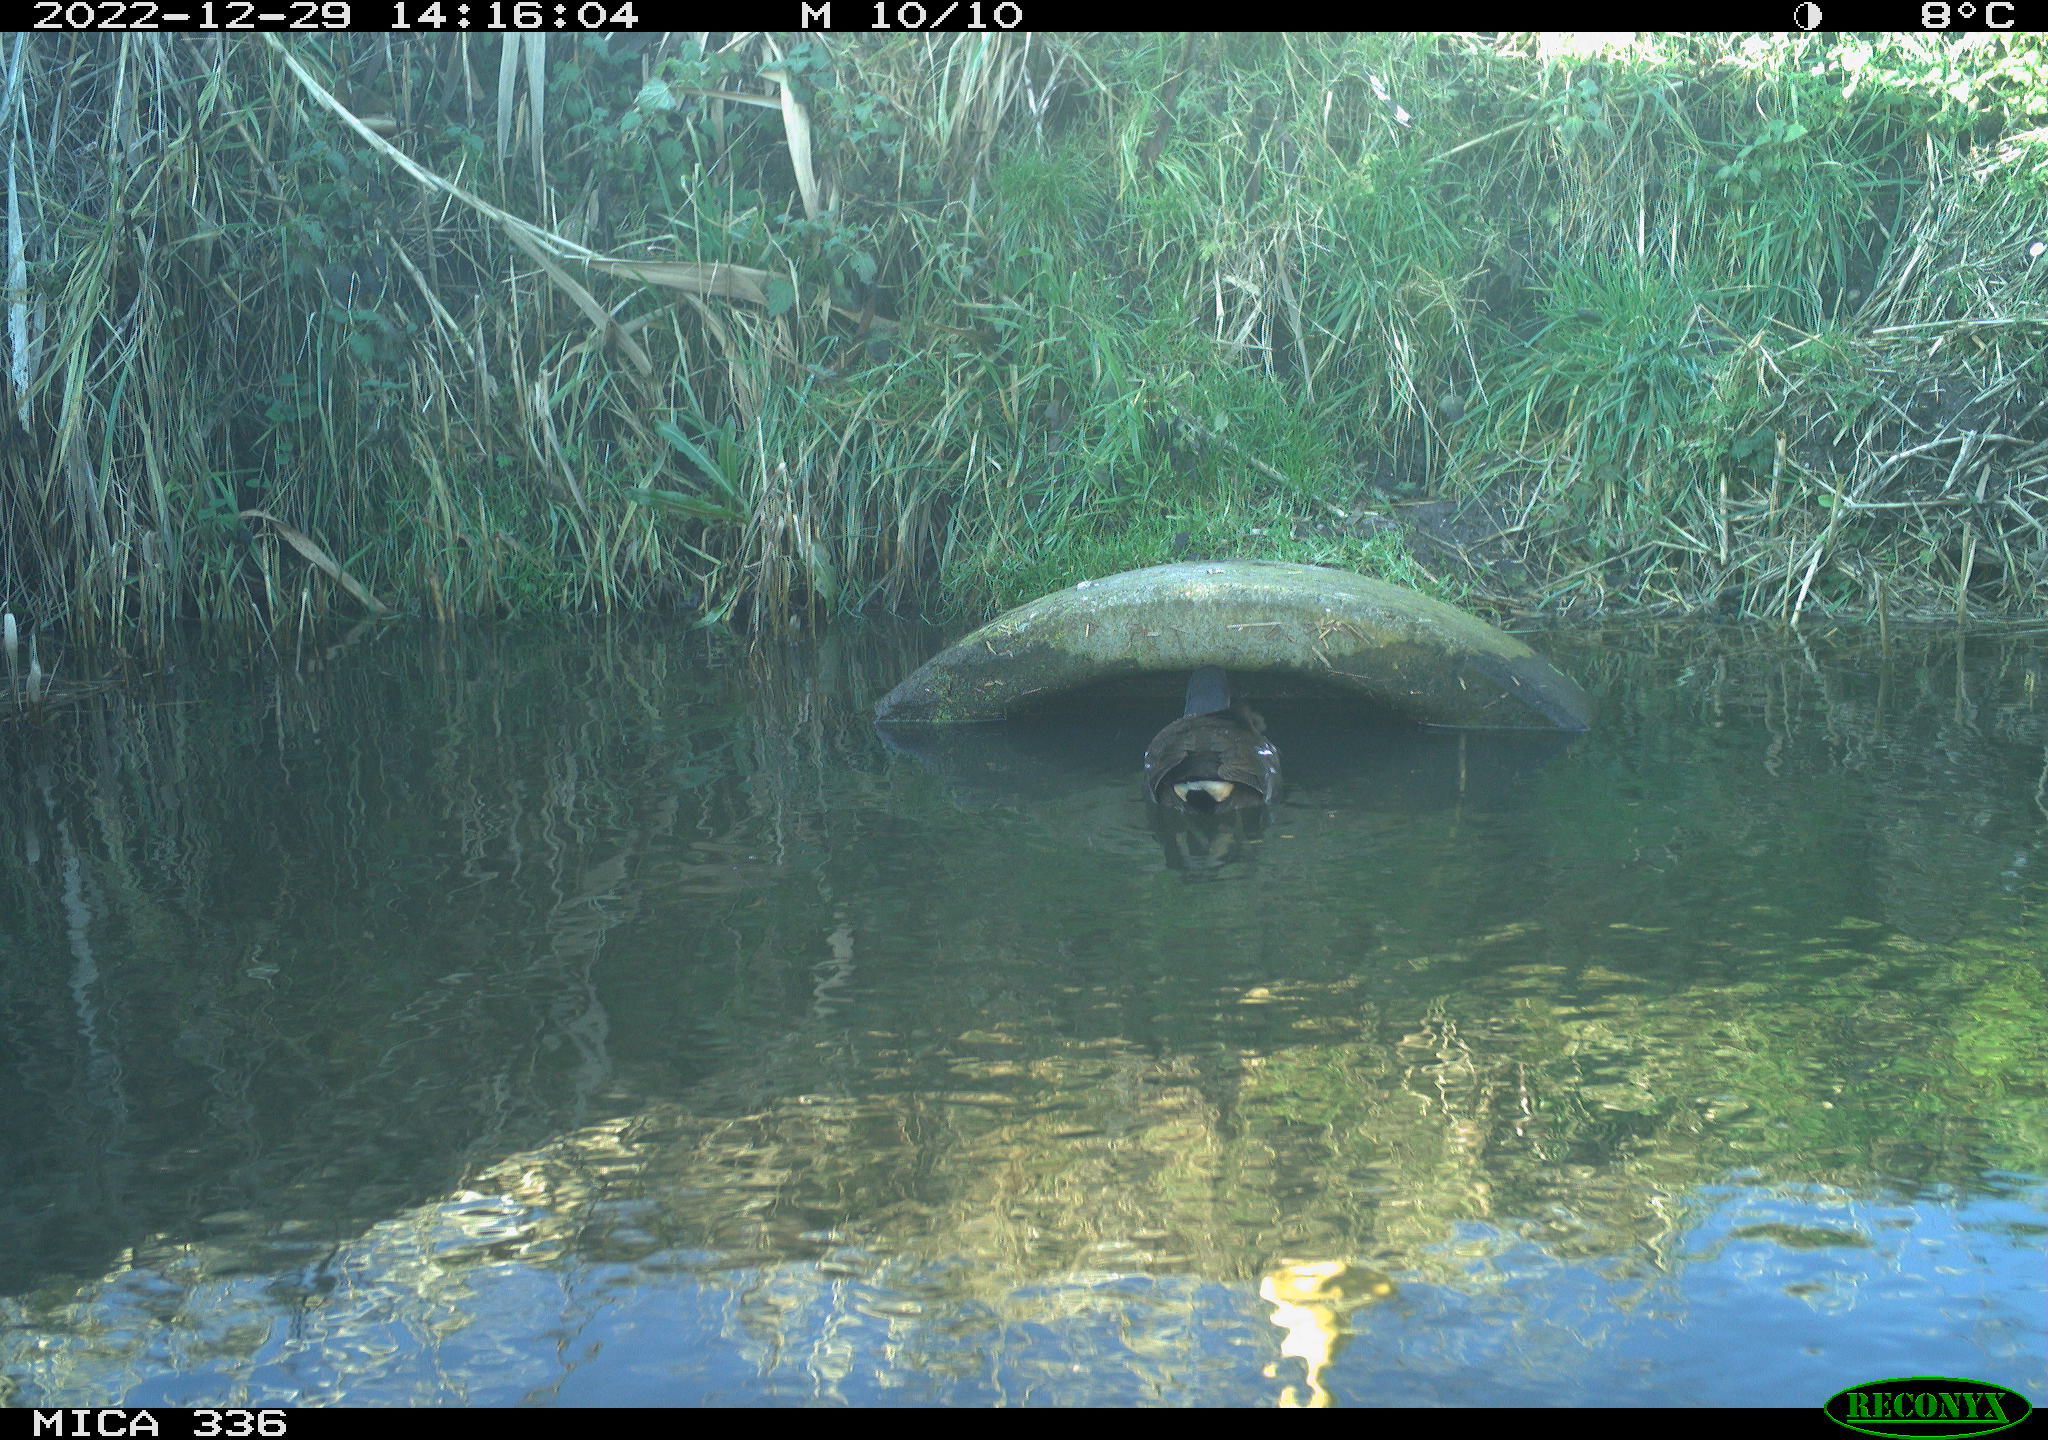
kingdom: Animalia
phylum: Chordata
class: Aves
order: Gruiformes
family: Rallidae
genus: Gallinula
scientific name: Gallinula chloropus
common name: Common moorhen
